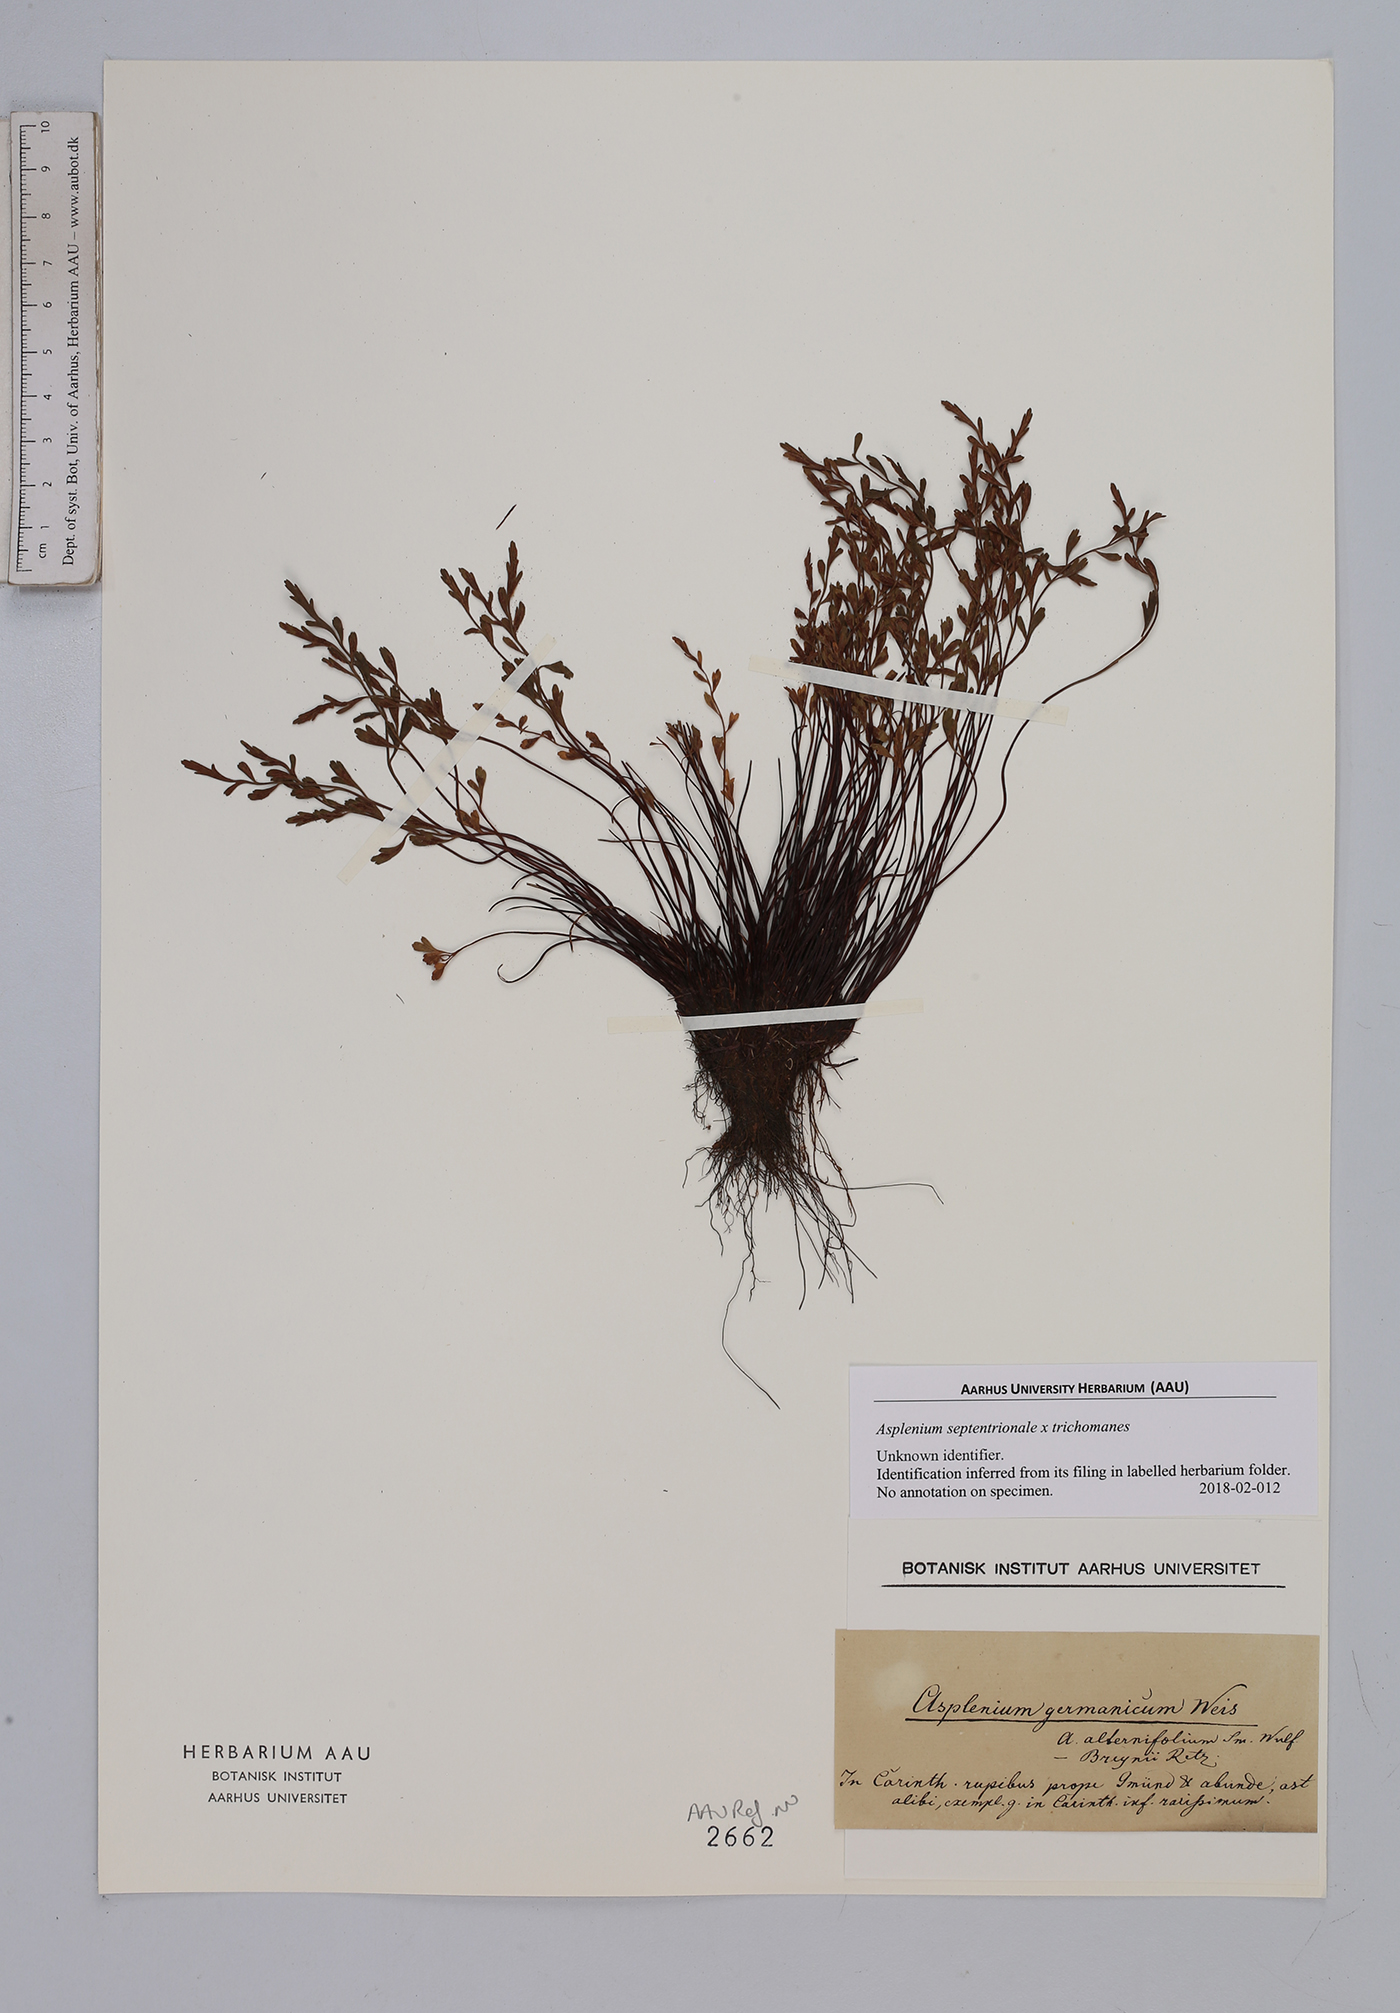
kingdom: Plantae
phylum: Tracheophyta
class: Polypodiopsida
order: Polypodiales
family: Aspleniaceae
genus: Asplenium
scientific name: Asplenium
